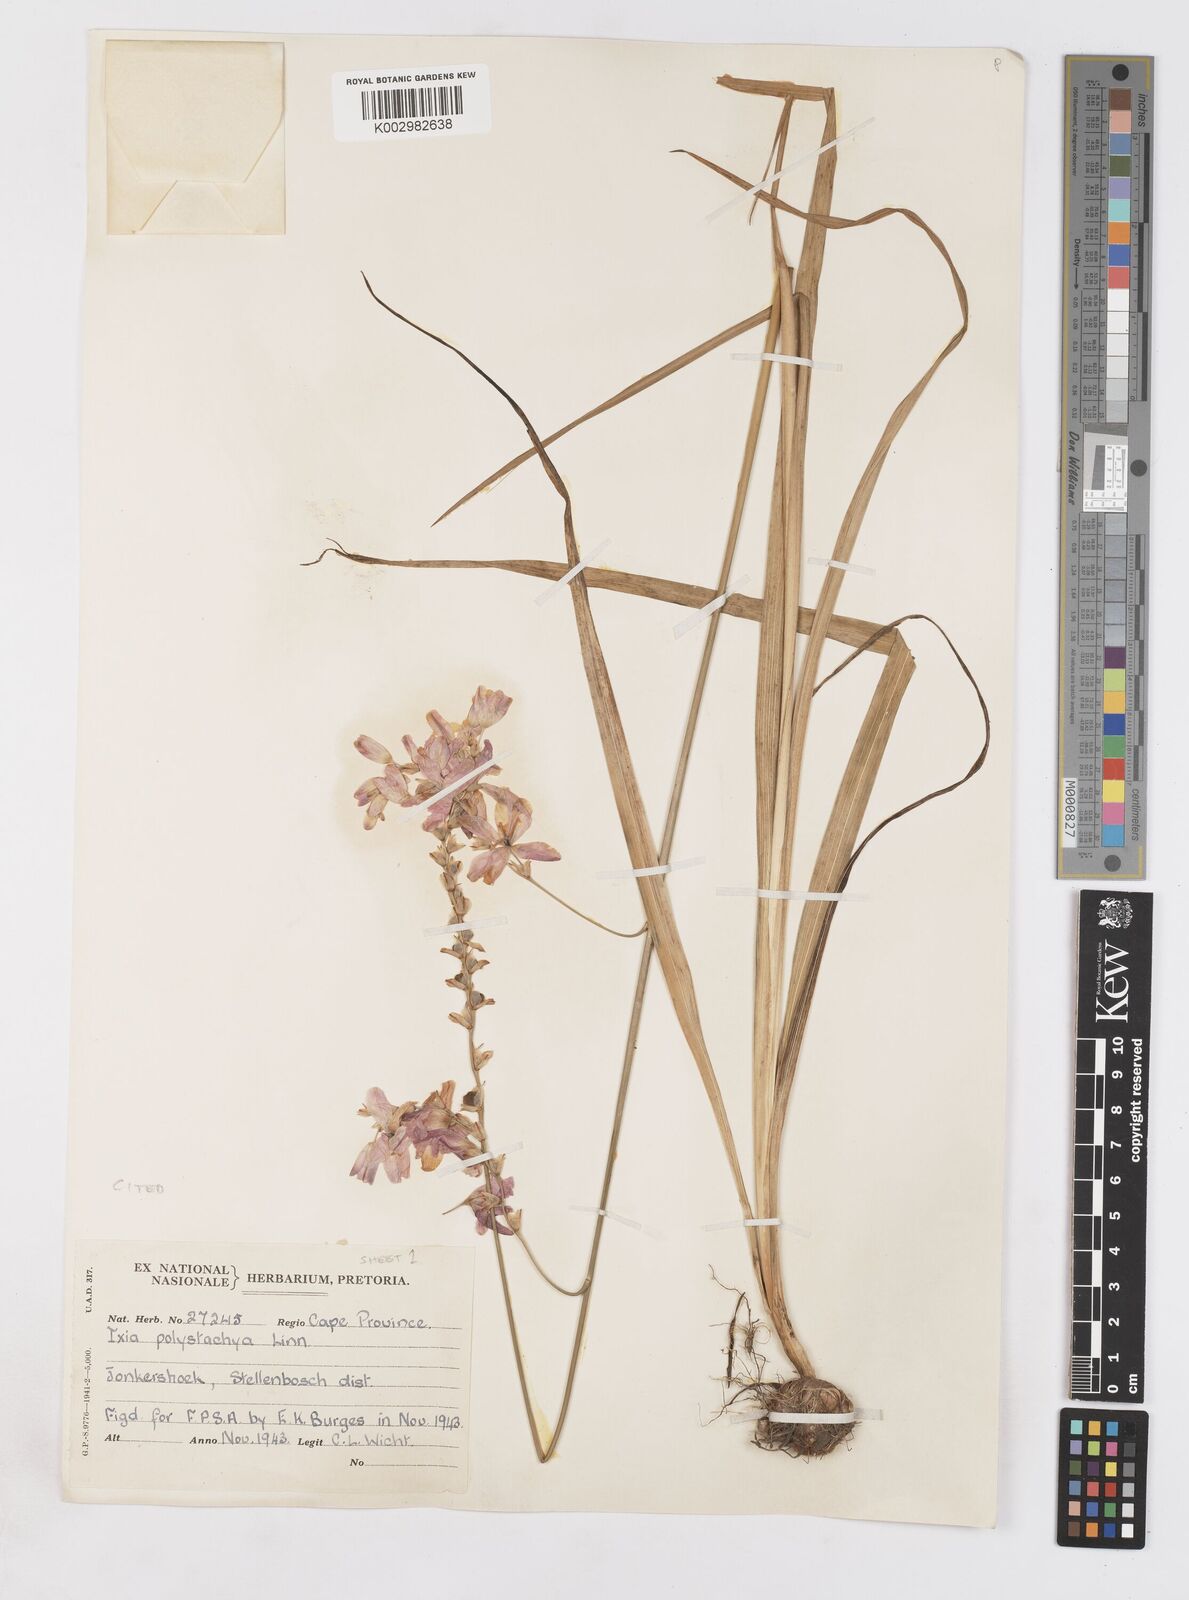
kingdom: Plantae
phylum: Tracheophyta
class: Liliopsida
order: Asparagales
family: Iridaceae
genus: Ixia
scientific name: Ixia polystachya
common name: White-and-yellow-flower cornlily
